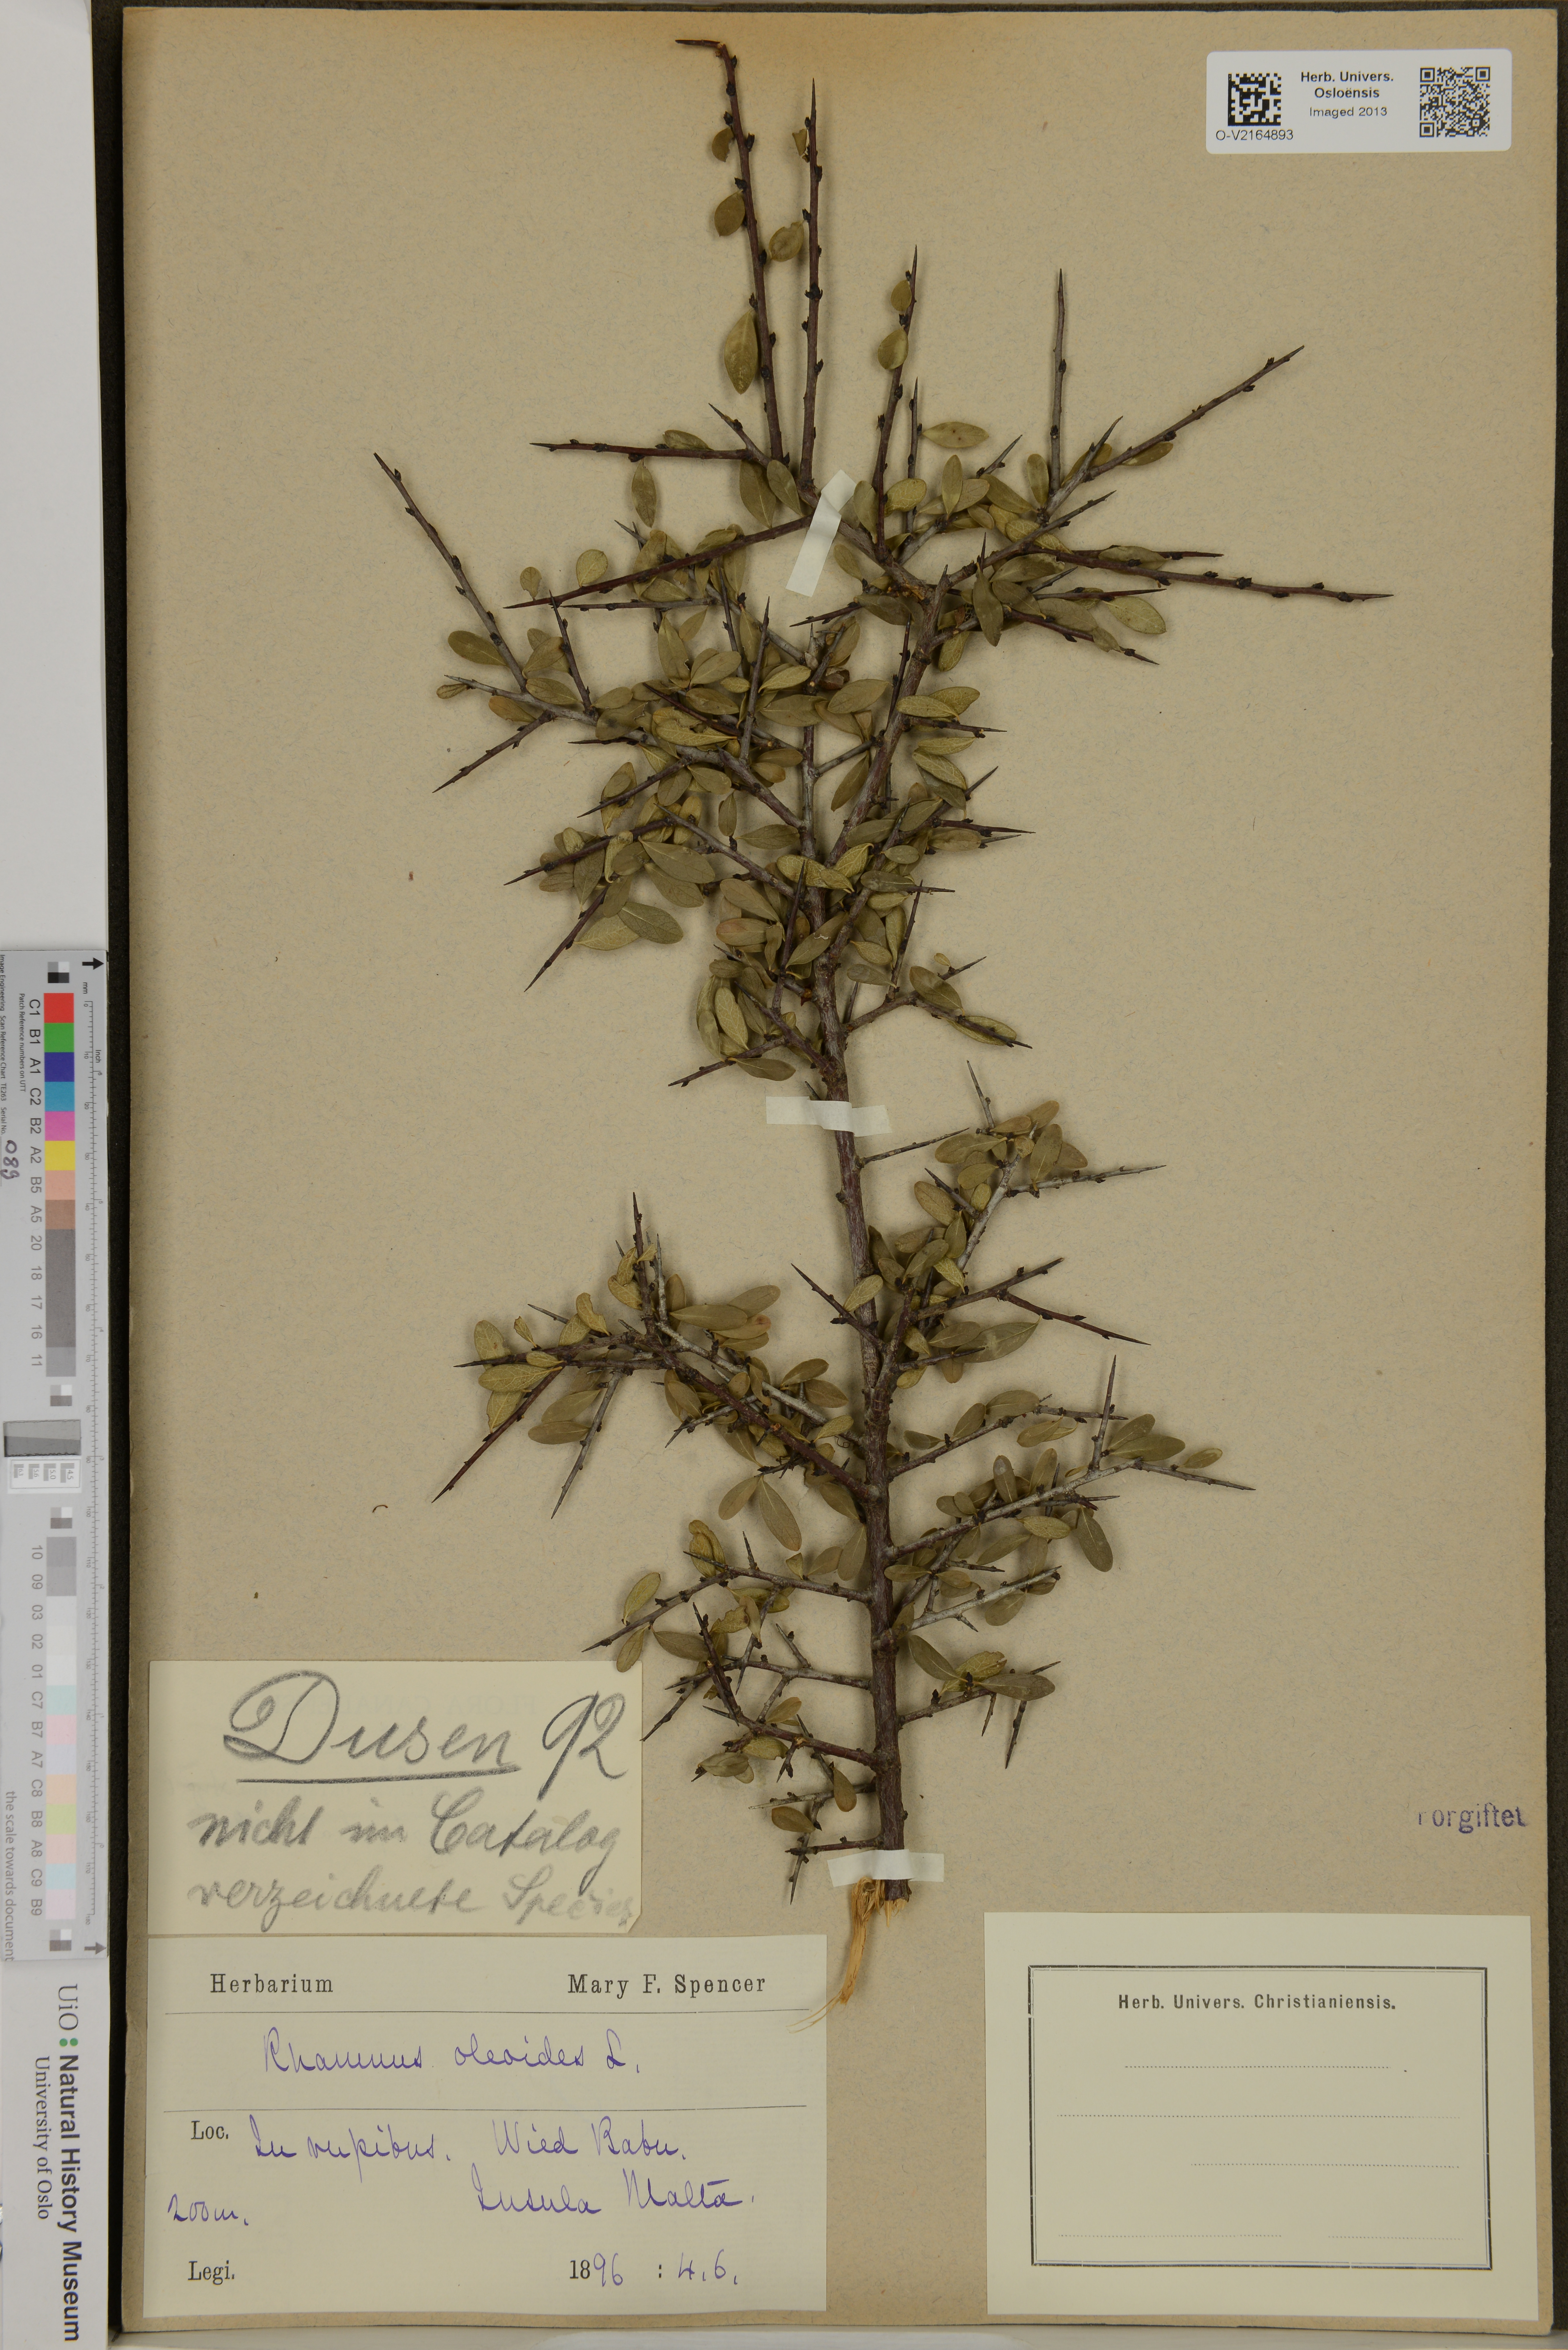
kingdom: Plantae
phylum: Tracheophyta
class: Magnoliopsida
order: Rosales
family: Rhamnaceae
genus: Rhamnus
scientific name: Rhamnus oleoides
